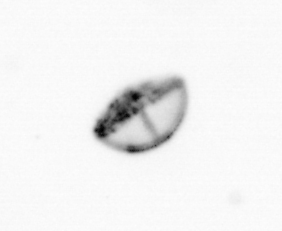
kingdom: Chromista
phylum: Ochrophyta
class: Bacillariophyceae
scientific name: Bacillariophyceae
